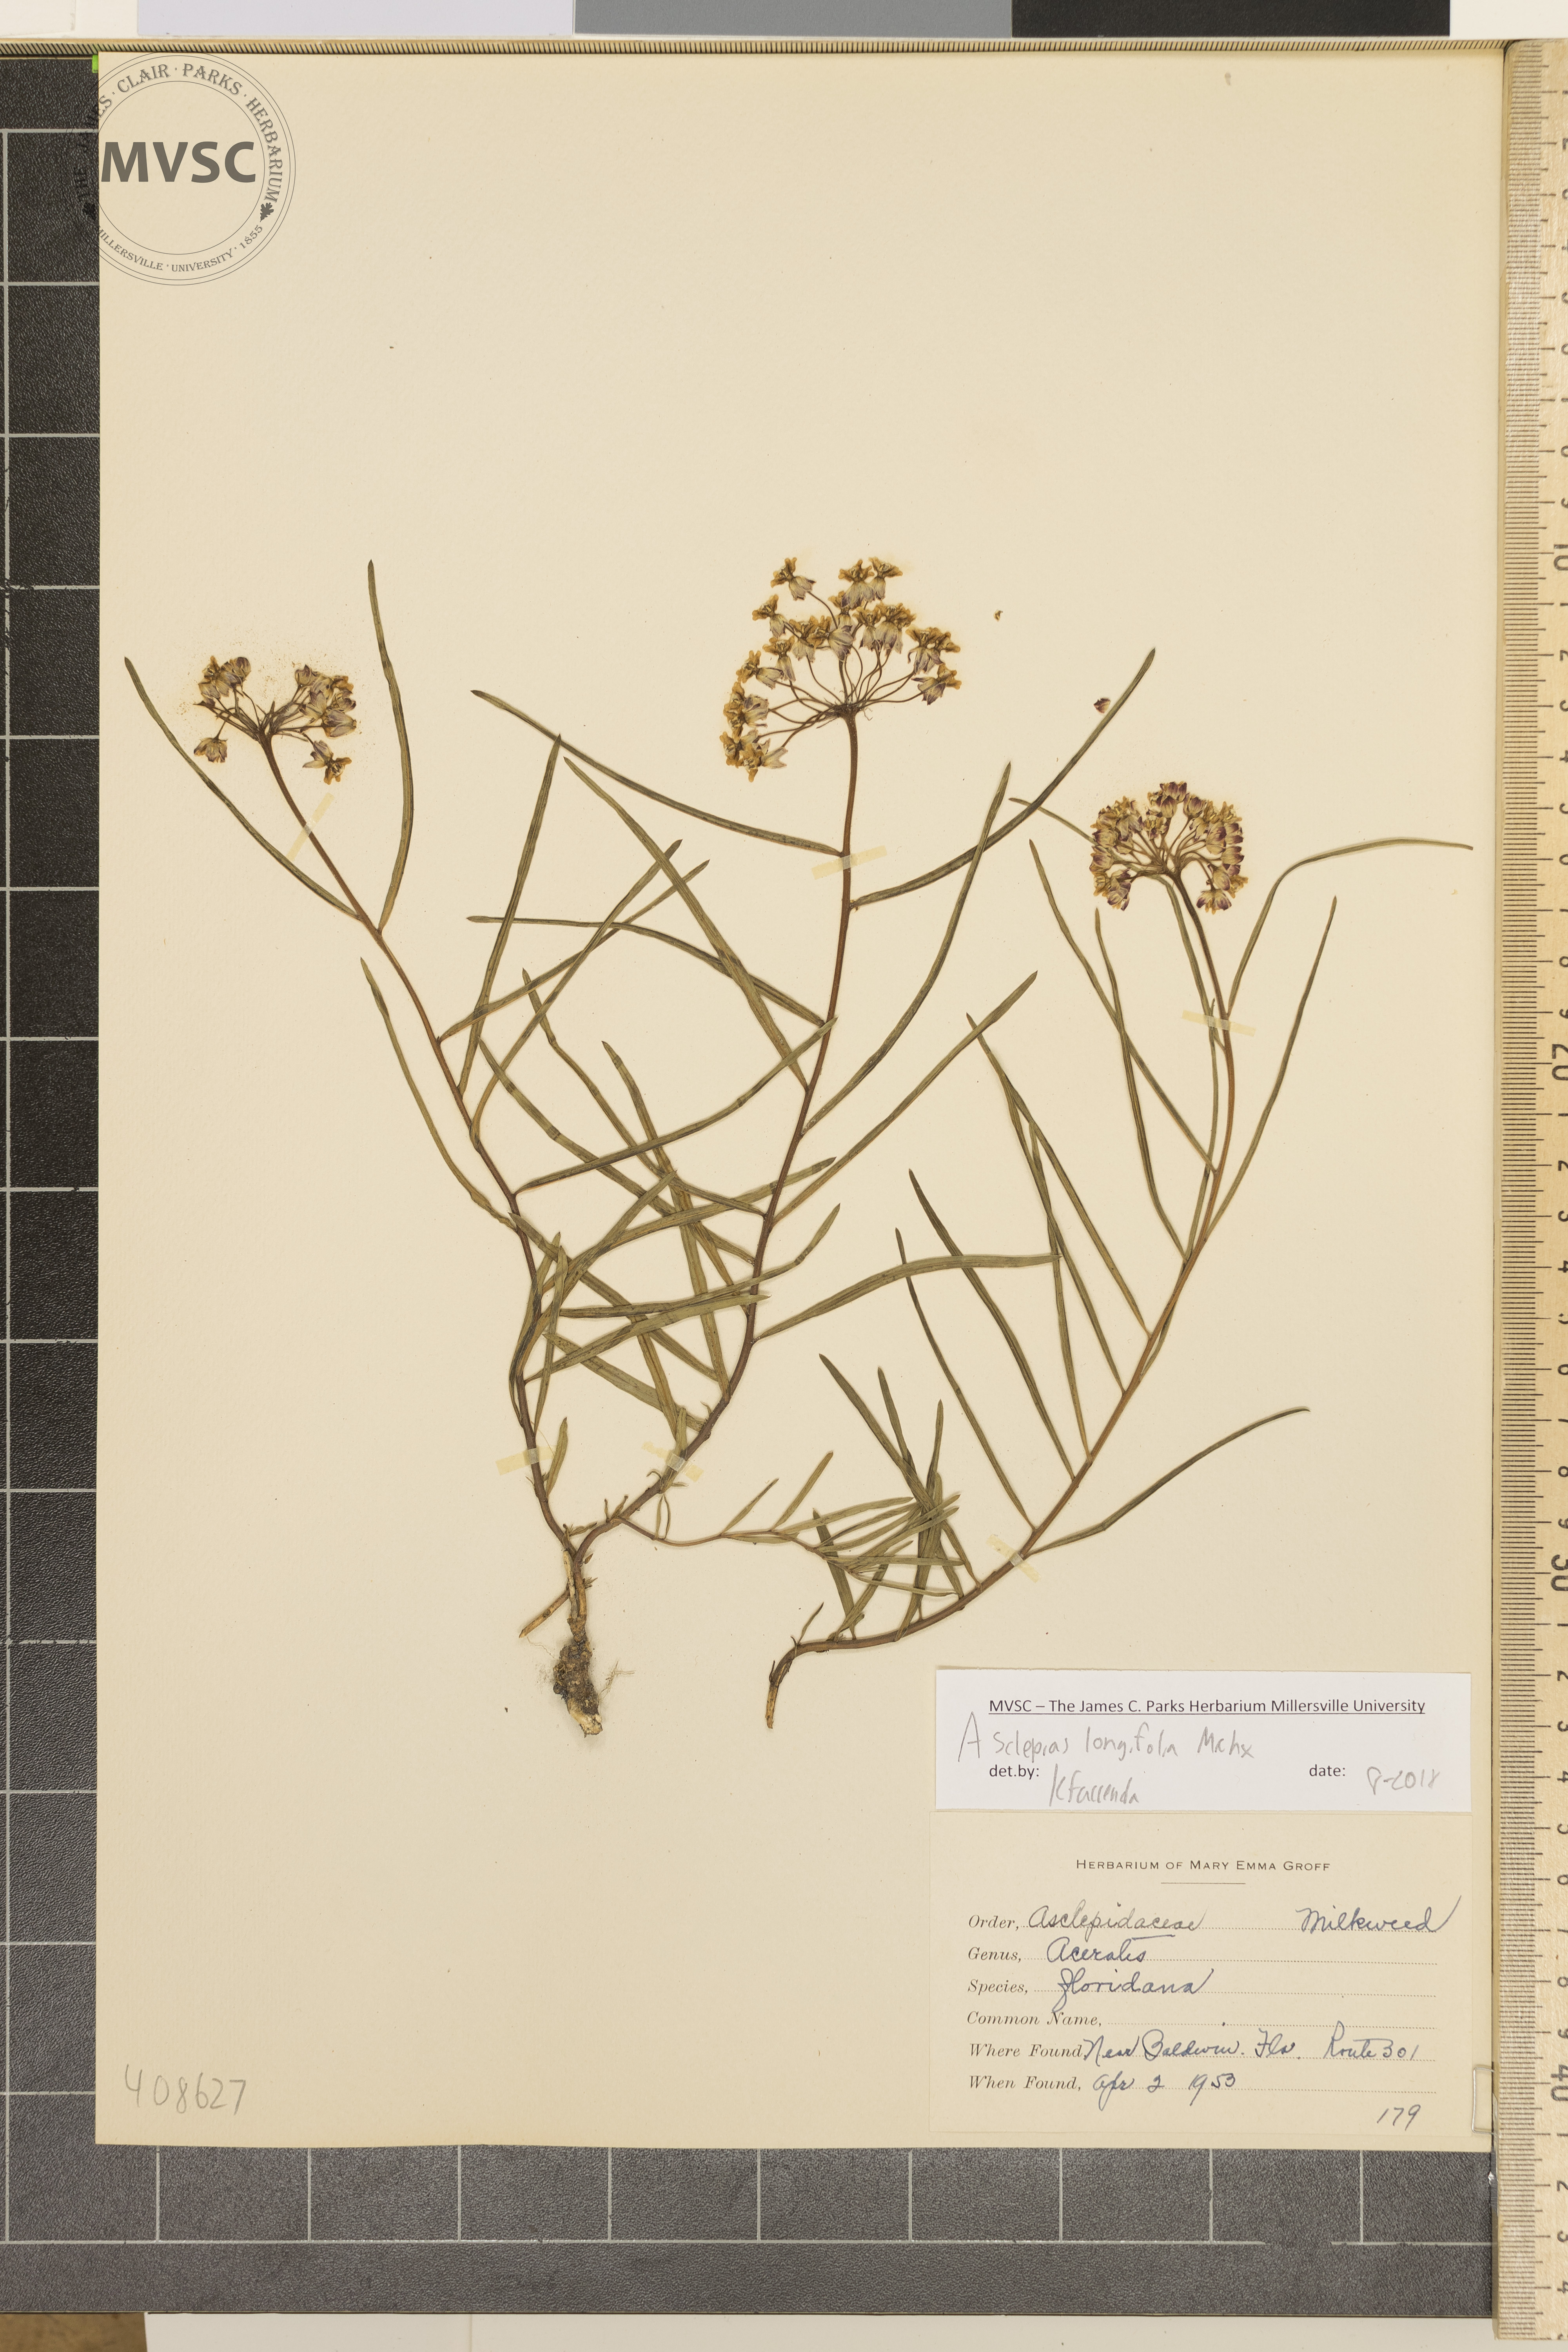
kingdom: Plantae
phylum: Tracheophyta
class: Magnoliopsida
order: Gentianales
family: Apocynaceae
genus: Asclepias
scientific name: Asclepias longifolia
